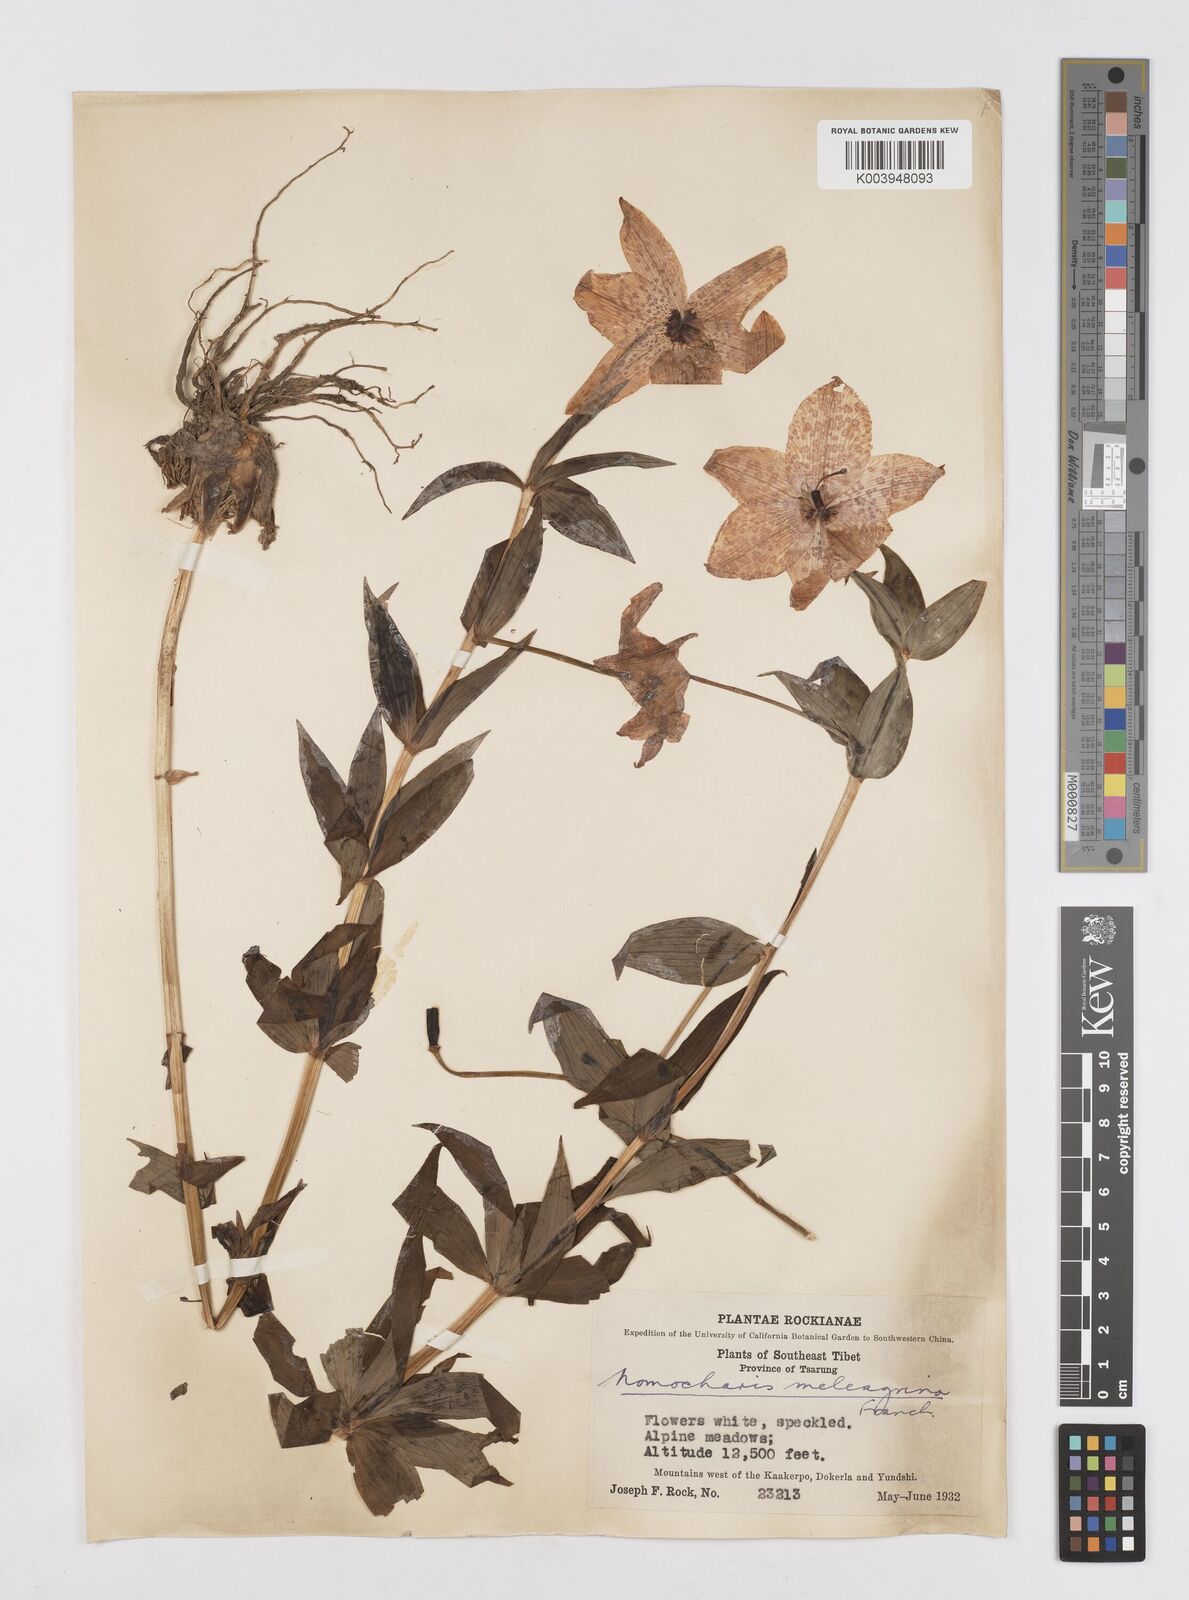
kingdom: Plantae
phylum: Tracheophyta
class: Liliopsida
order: Liliales
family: Liliaceae
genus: Lilium
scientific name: Lilium meleagrina
